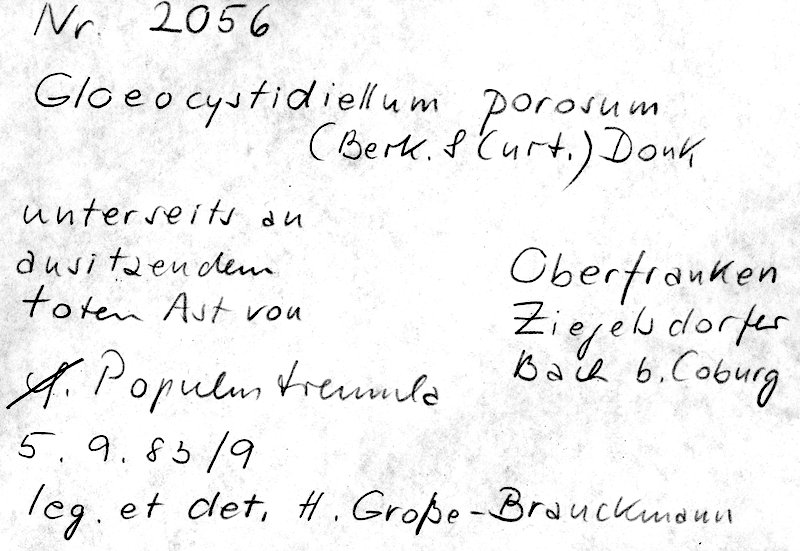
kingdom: Plantae
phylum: Tracheophyta
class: Magnoliopsida
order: Malpighiales
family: Salicaceae
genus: Populus
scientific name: Populus tremula
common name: European aspen
